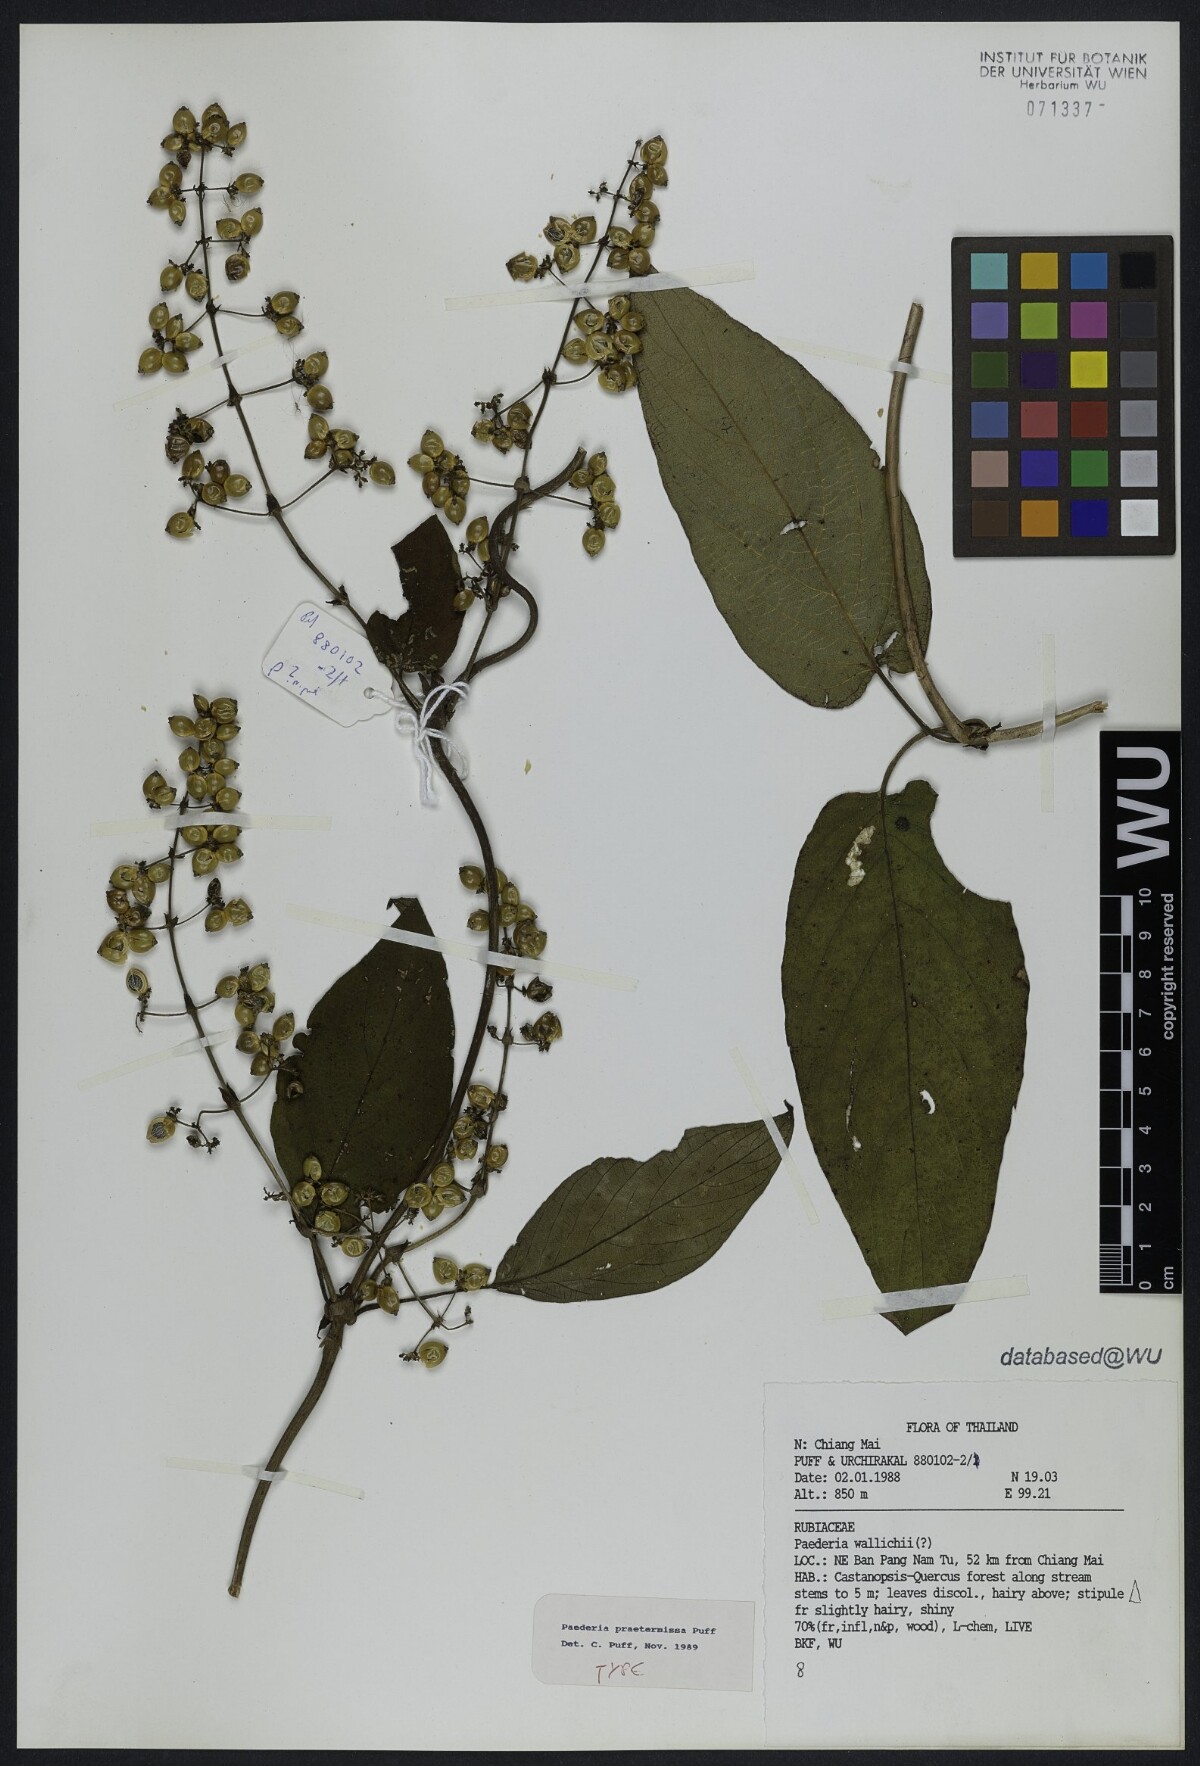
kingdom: Plantae
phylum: Tracheophyta
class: Magnoliopsida
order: Gentianales
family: Rubiaceae
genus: Paederia
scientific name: Paederia praetermissa
